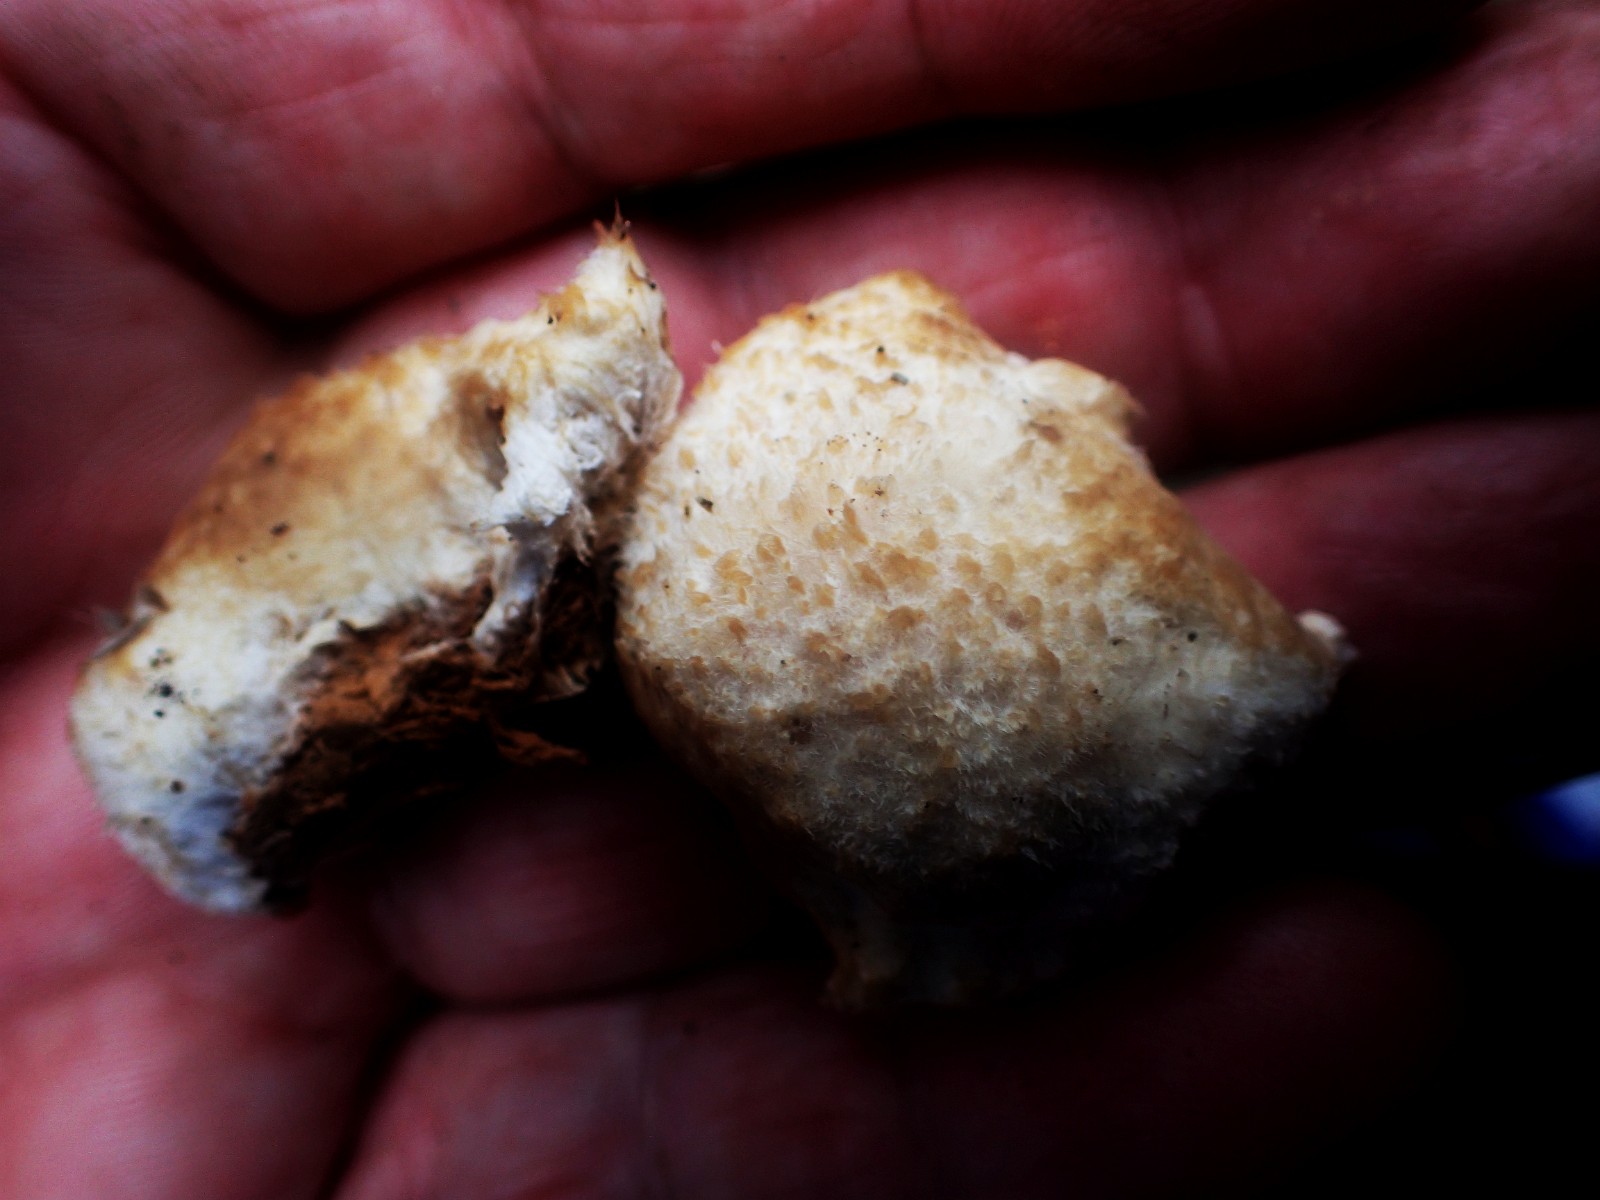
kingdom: Fungi
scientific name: Fungi
